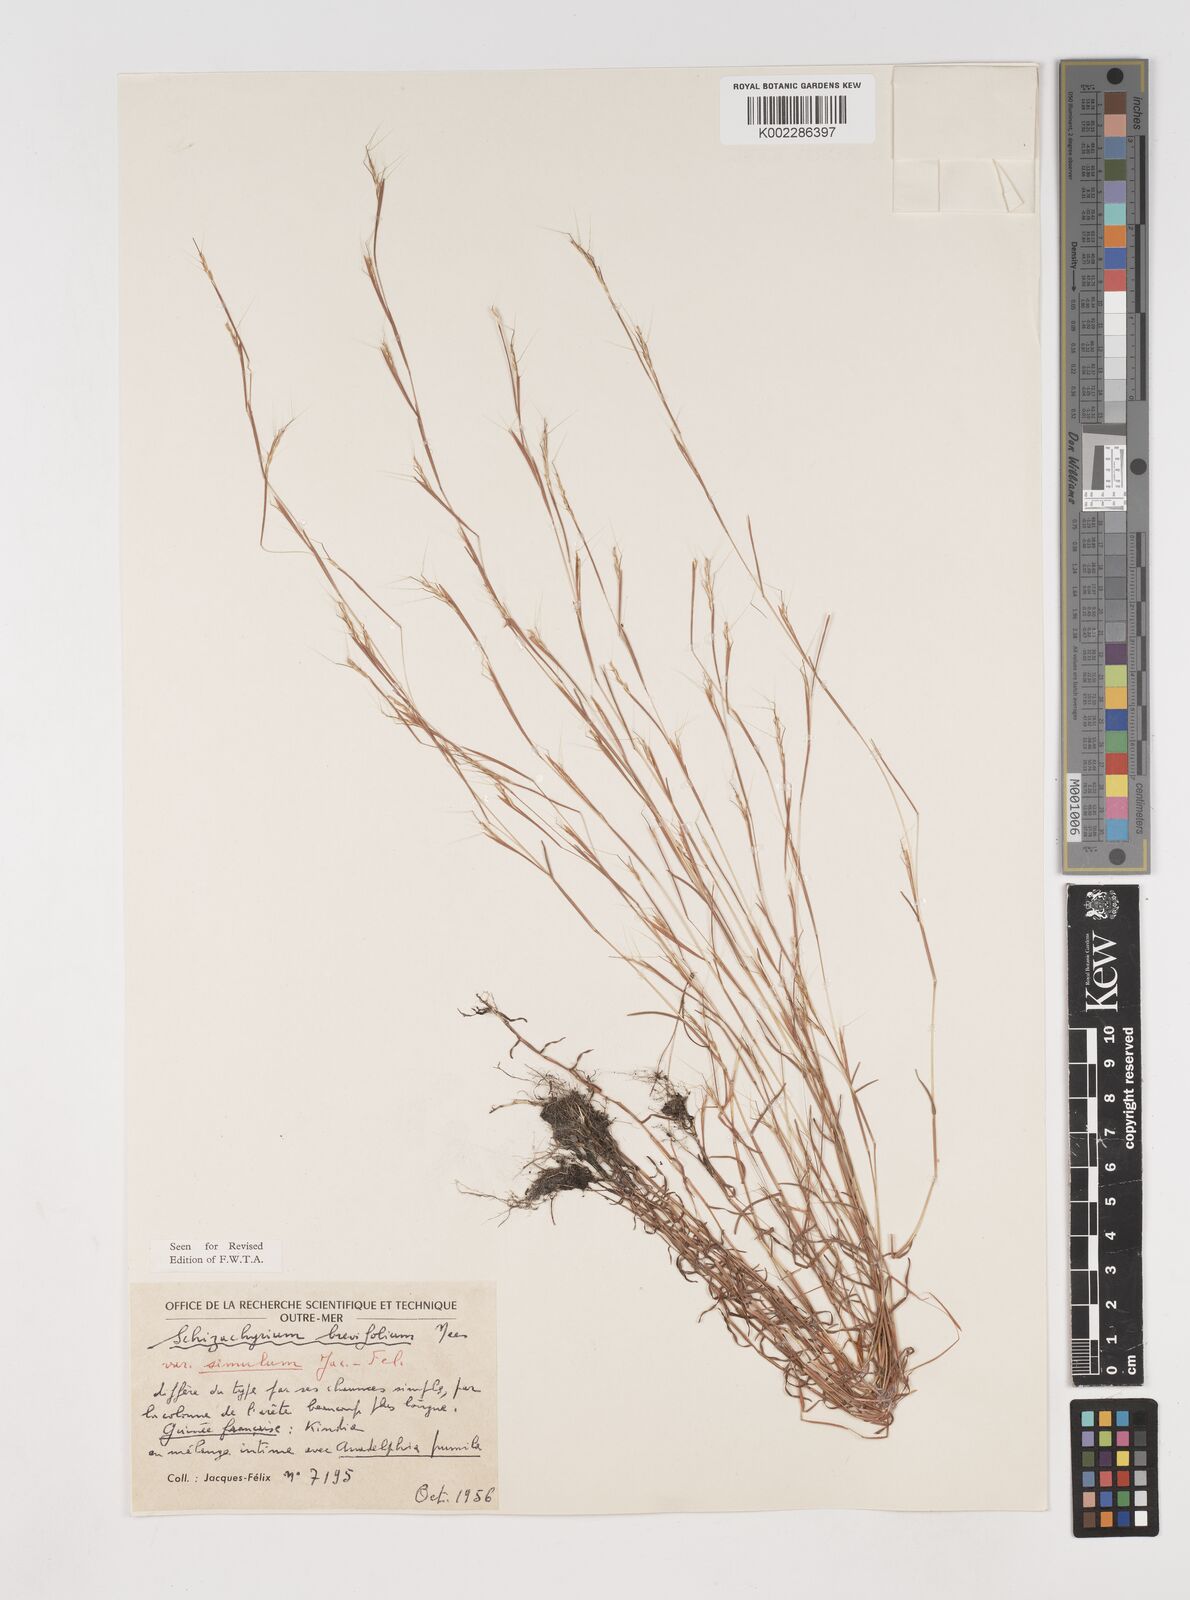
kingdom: Plantae
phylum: Tracheophyta
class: Liliopsida
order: Poales
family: Poaceae
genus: Schizachyrium
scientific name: Schizachyrium brevifolium
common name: Serillo dulce
